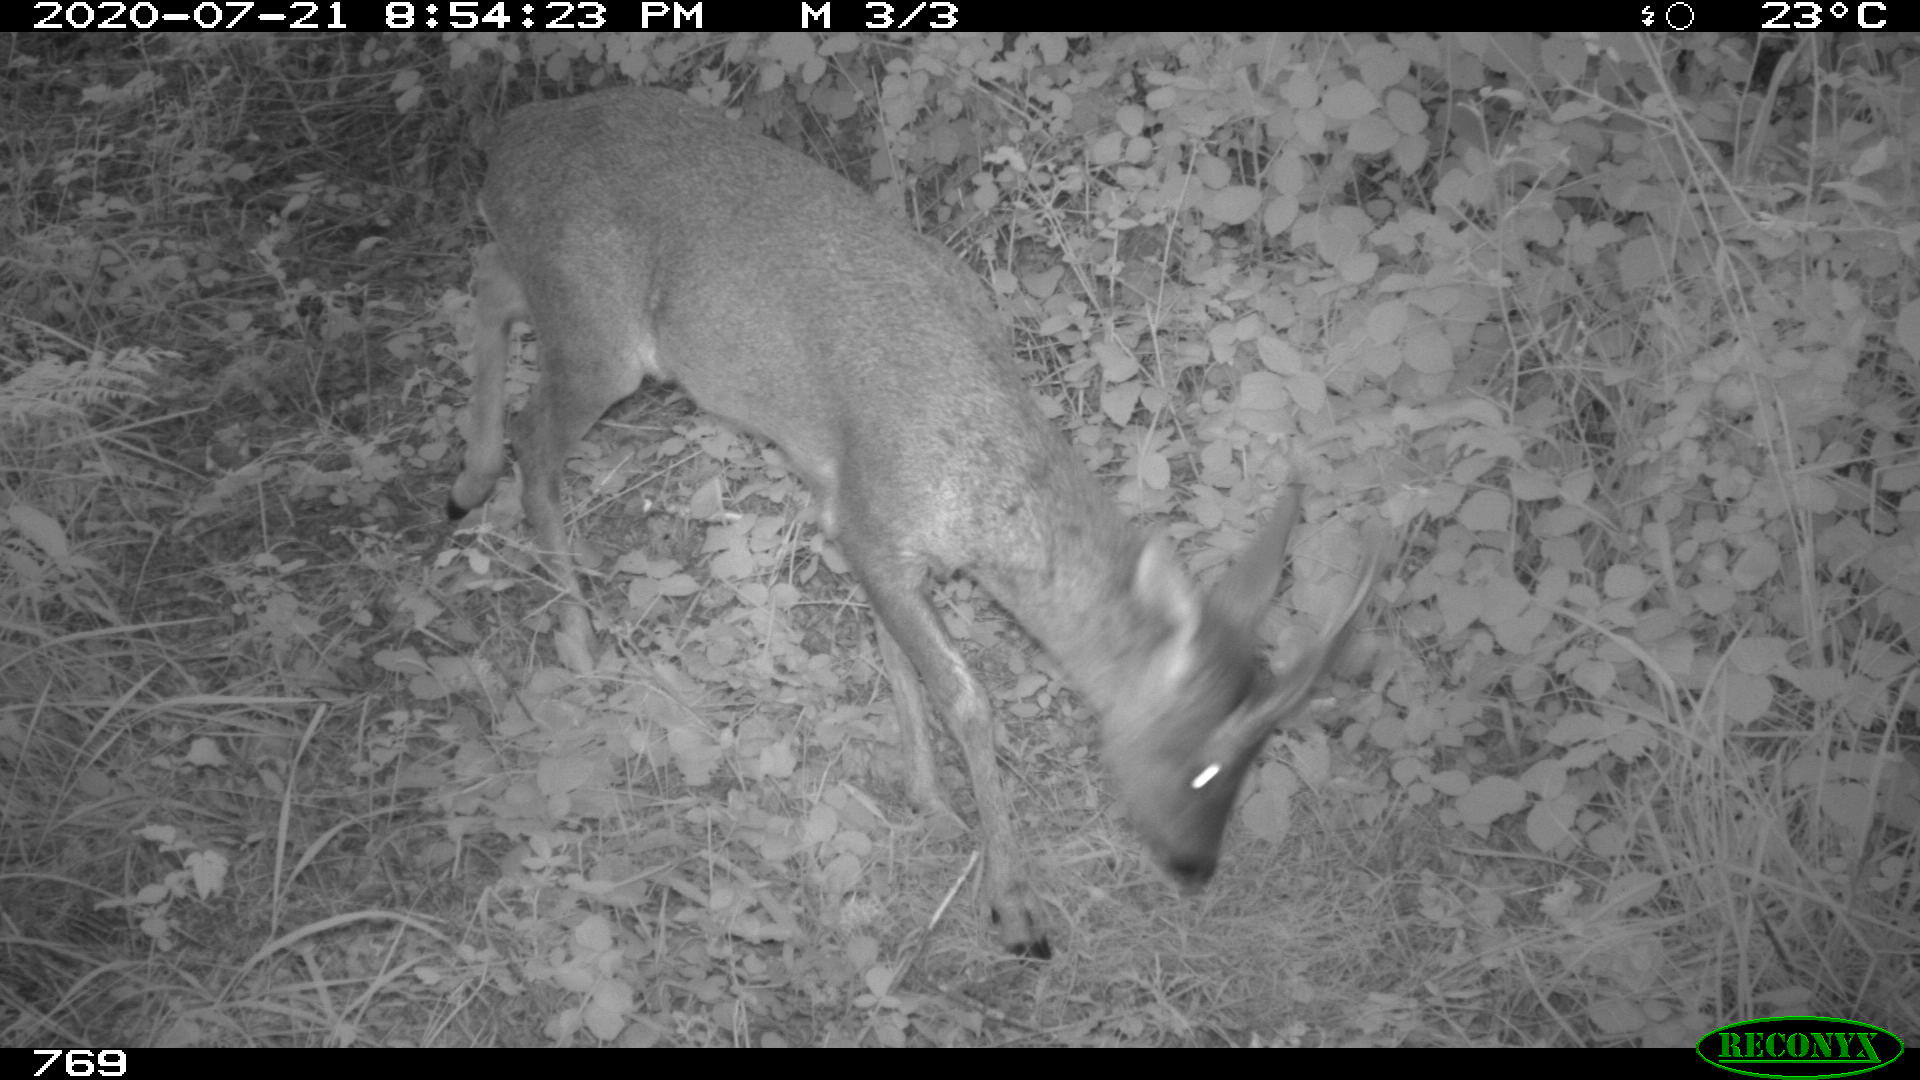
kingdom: Animalia
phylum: Chordata
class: Mammalia
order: Artiodactyla
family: Cervidae
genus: Capreolus
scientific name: Capreolus capreolus
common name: Western roe deer
